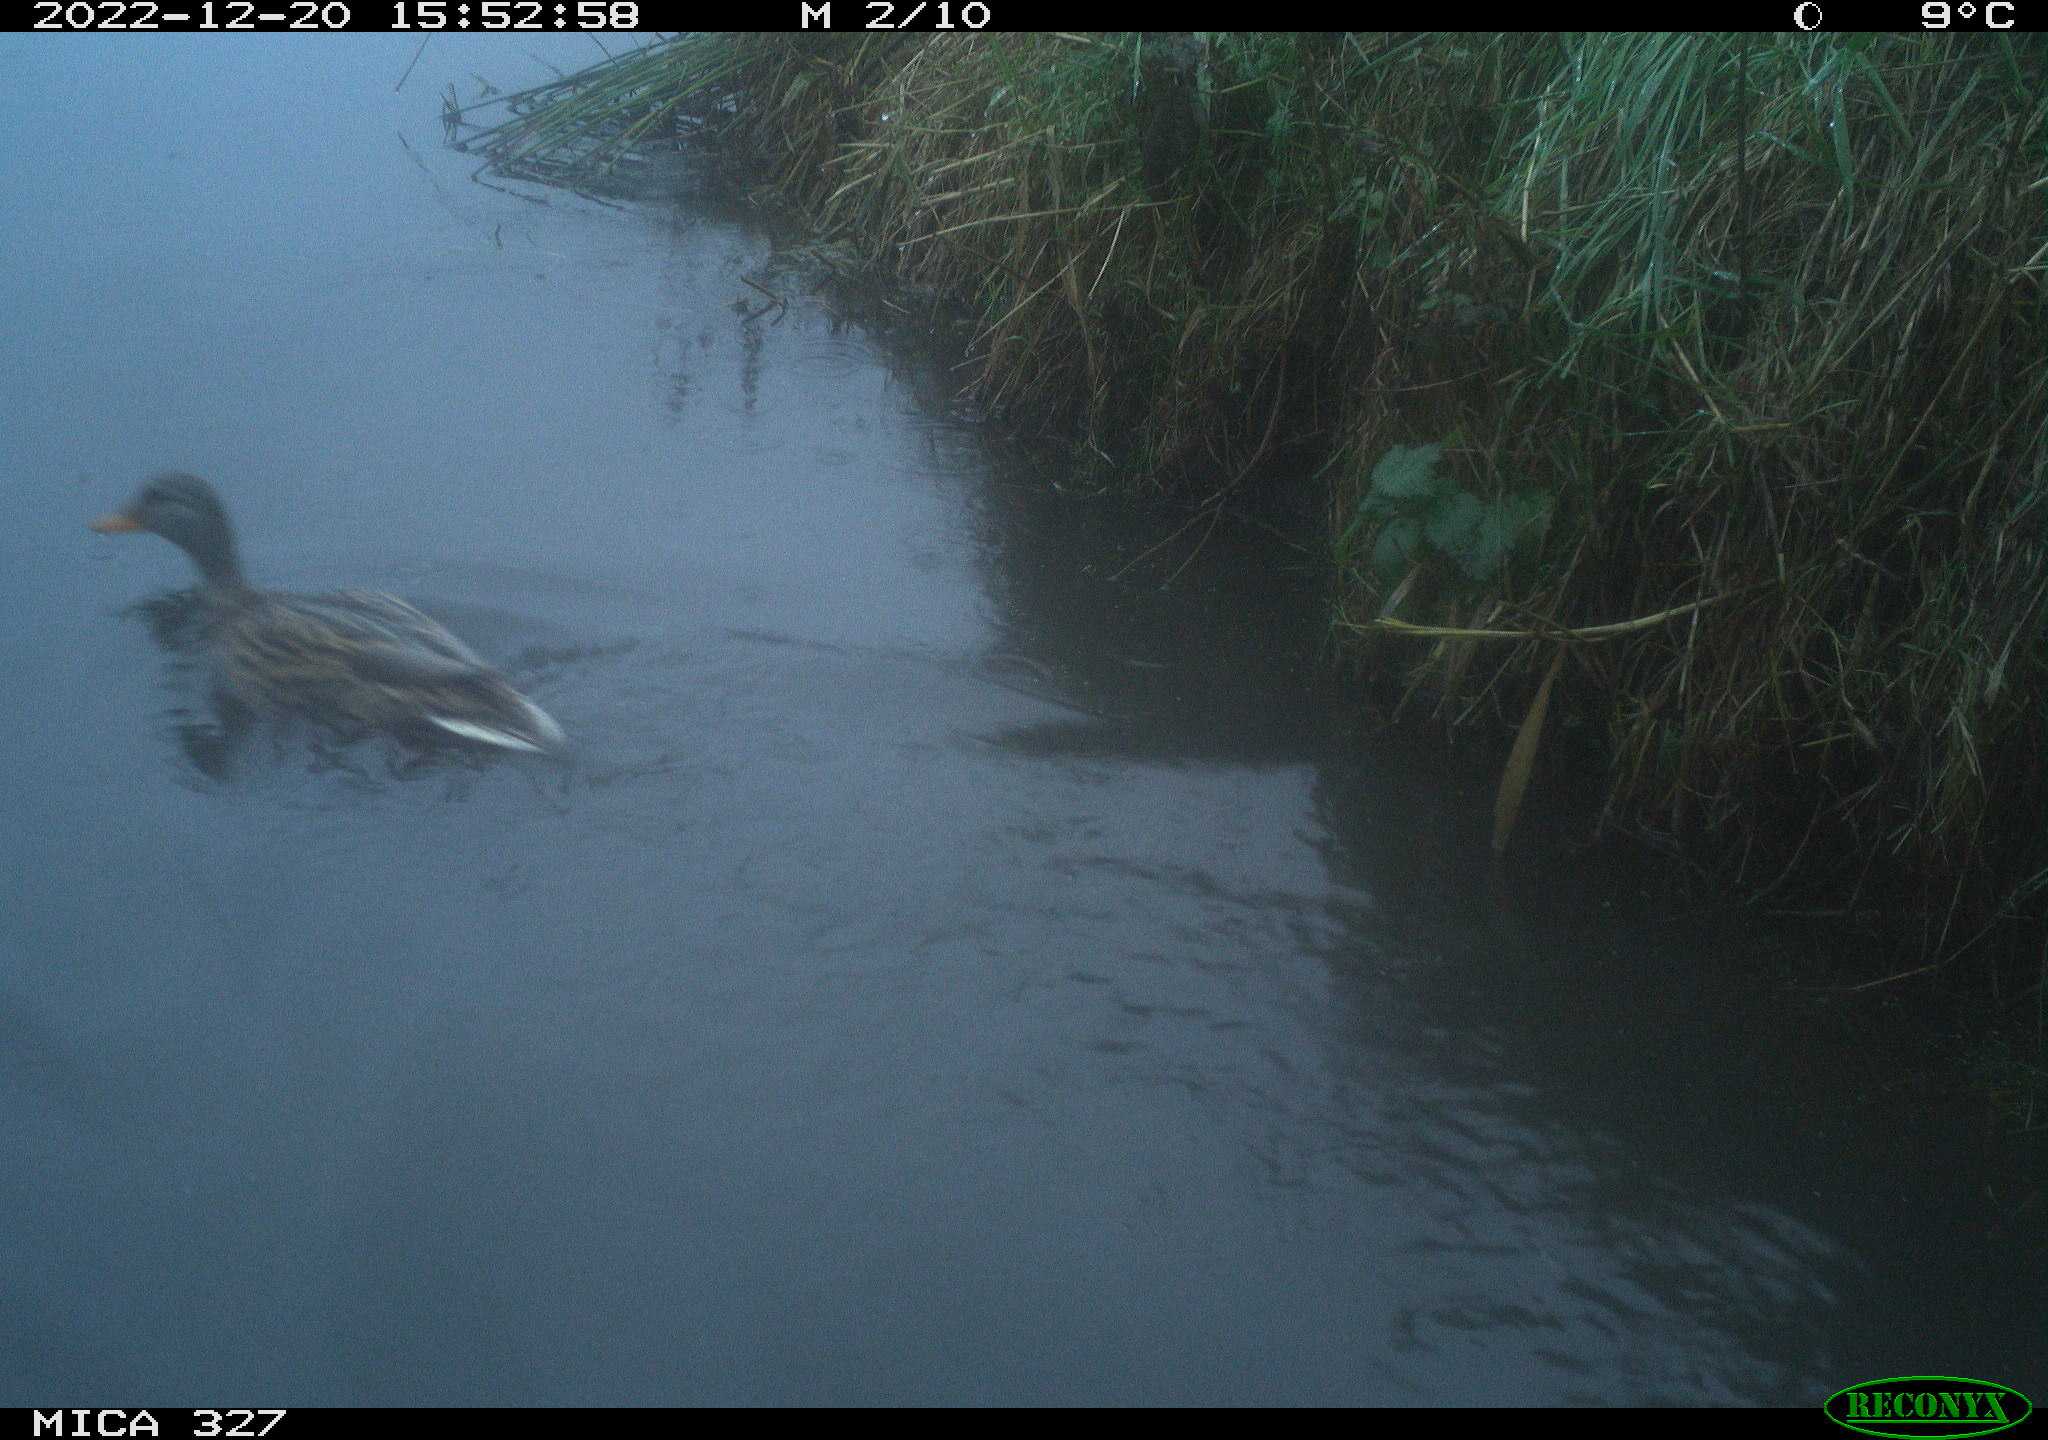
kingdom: Animalia
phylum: Chordata
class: Aves
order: Anseriformes
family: Anatidae
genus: Anas
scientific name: Anas
